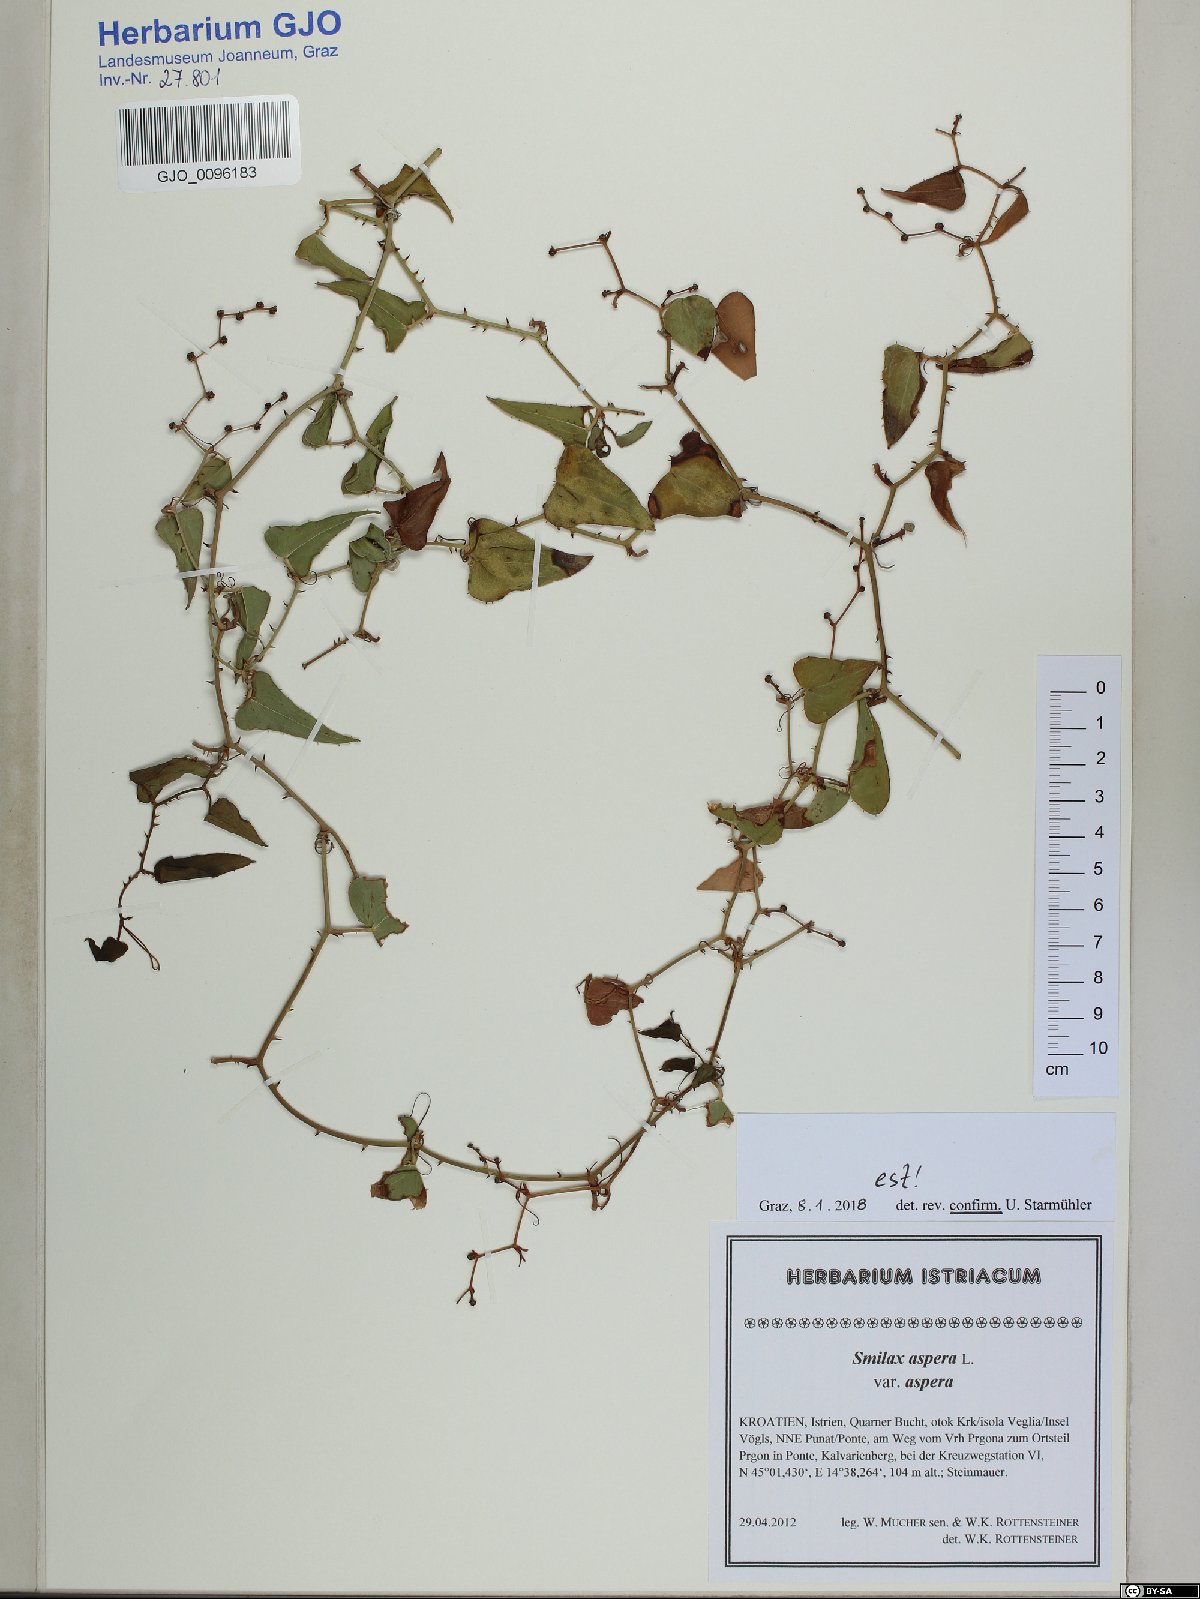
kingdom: Plantae
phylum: Tracheophyta
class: Liliopsida
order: Liliales
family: Smilacaceae
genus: Smilax
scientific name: Smilax aspera
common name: Common smilax
